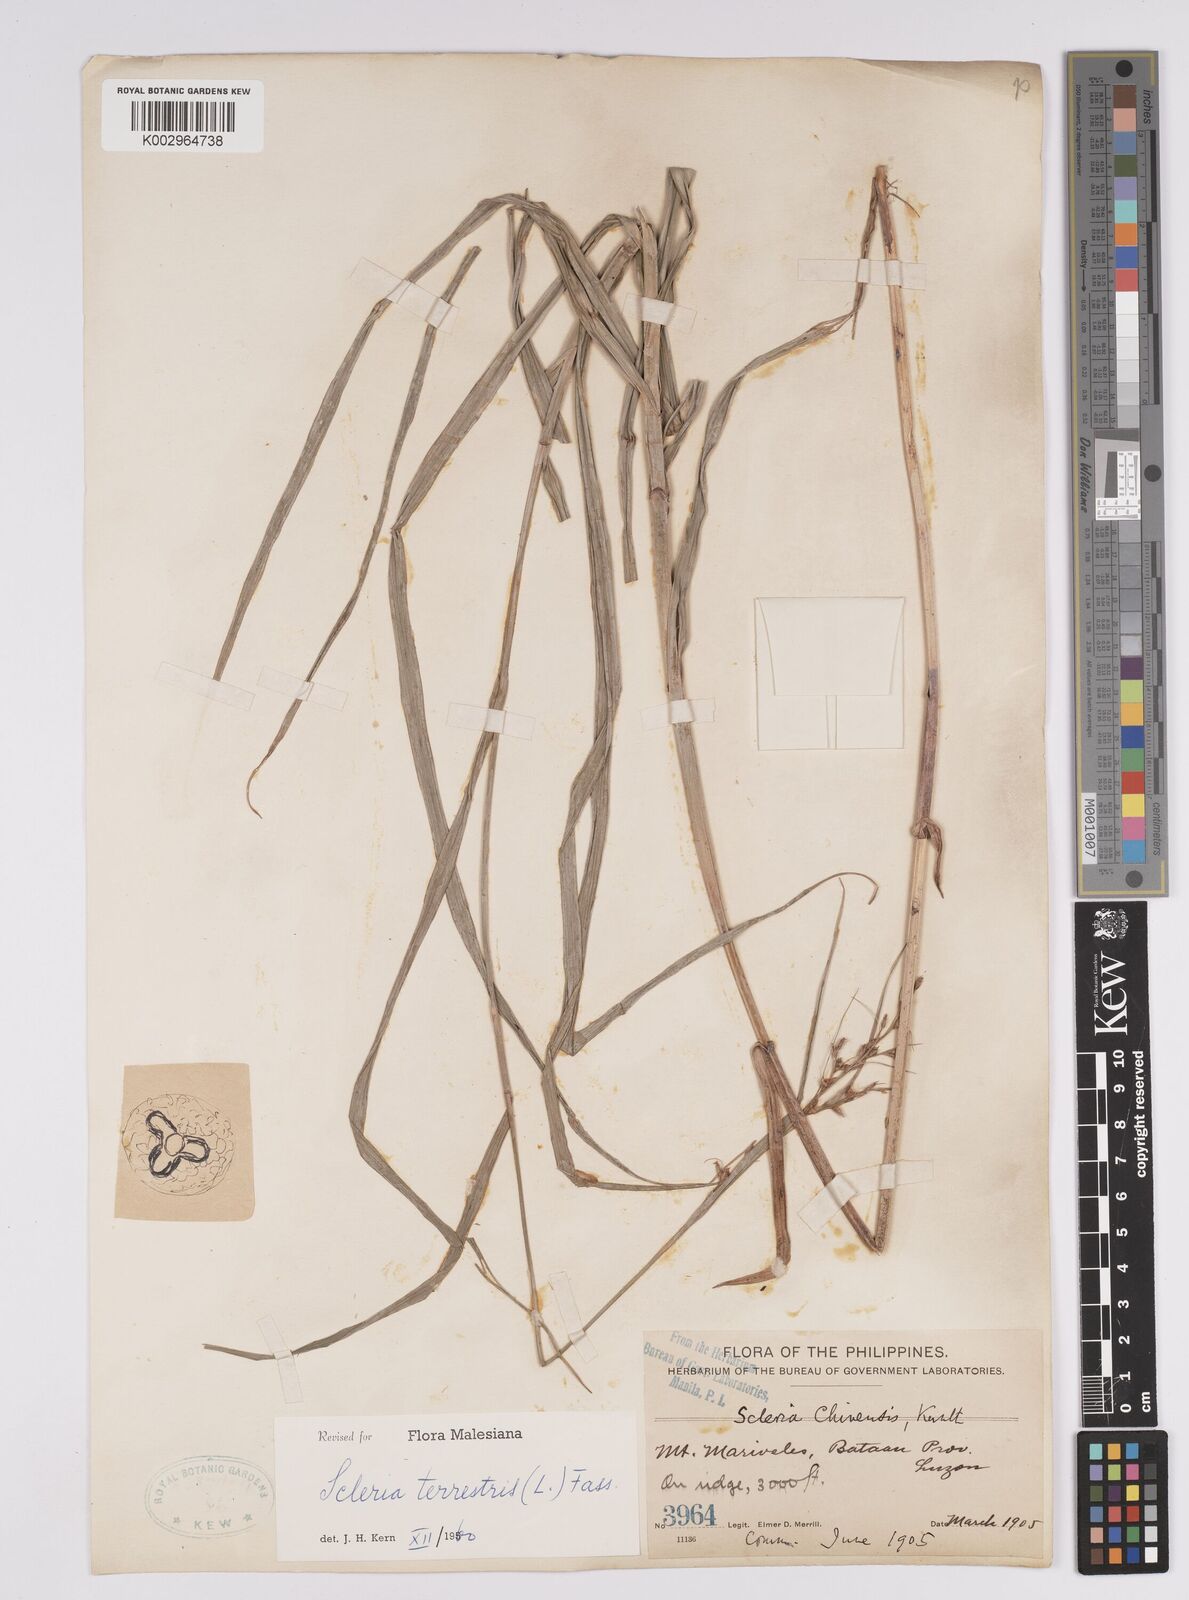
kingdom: Plantae
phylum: Tracheophyta
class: Liliopsida
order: Poales
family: Cyperaceae
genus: Scleria
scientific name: Scleria terrestris
